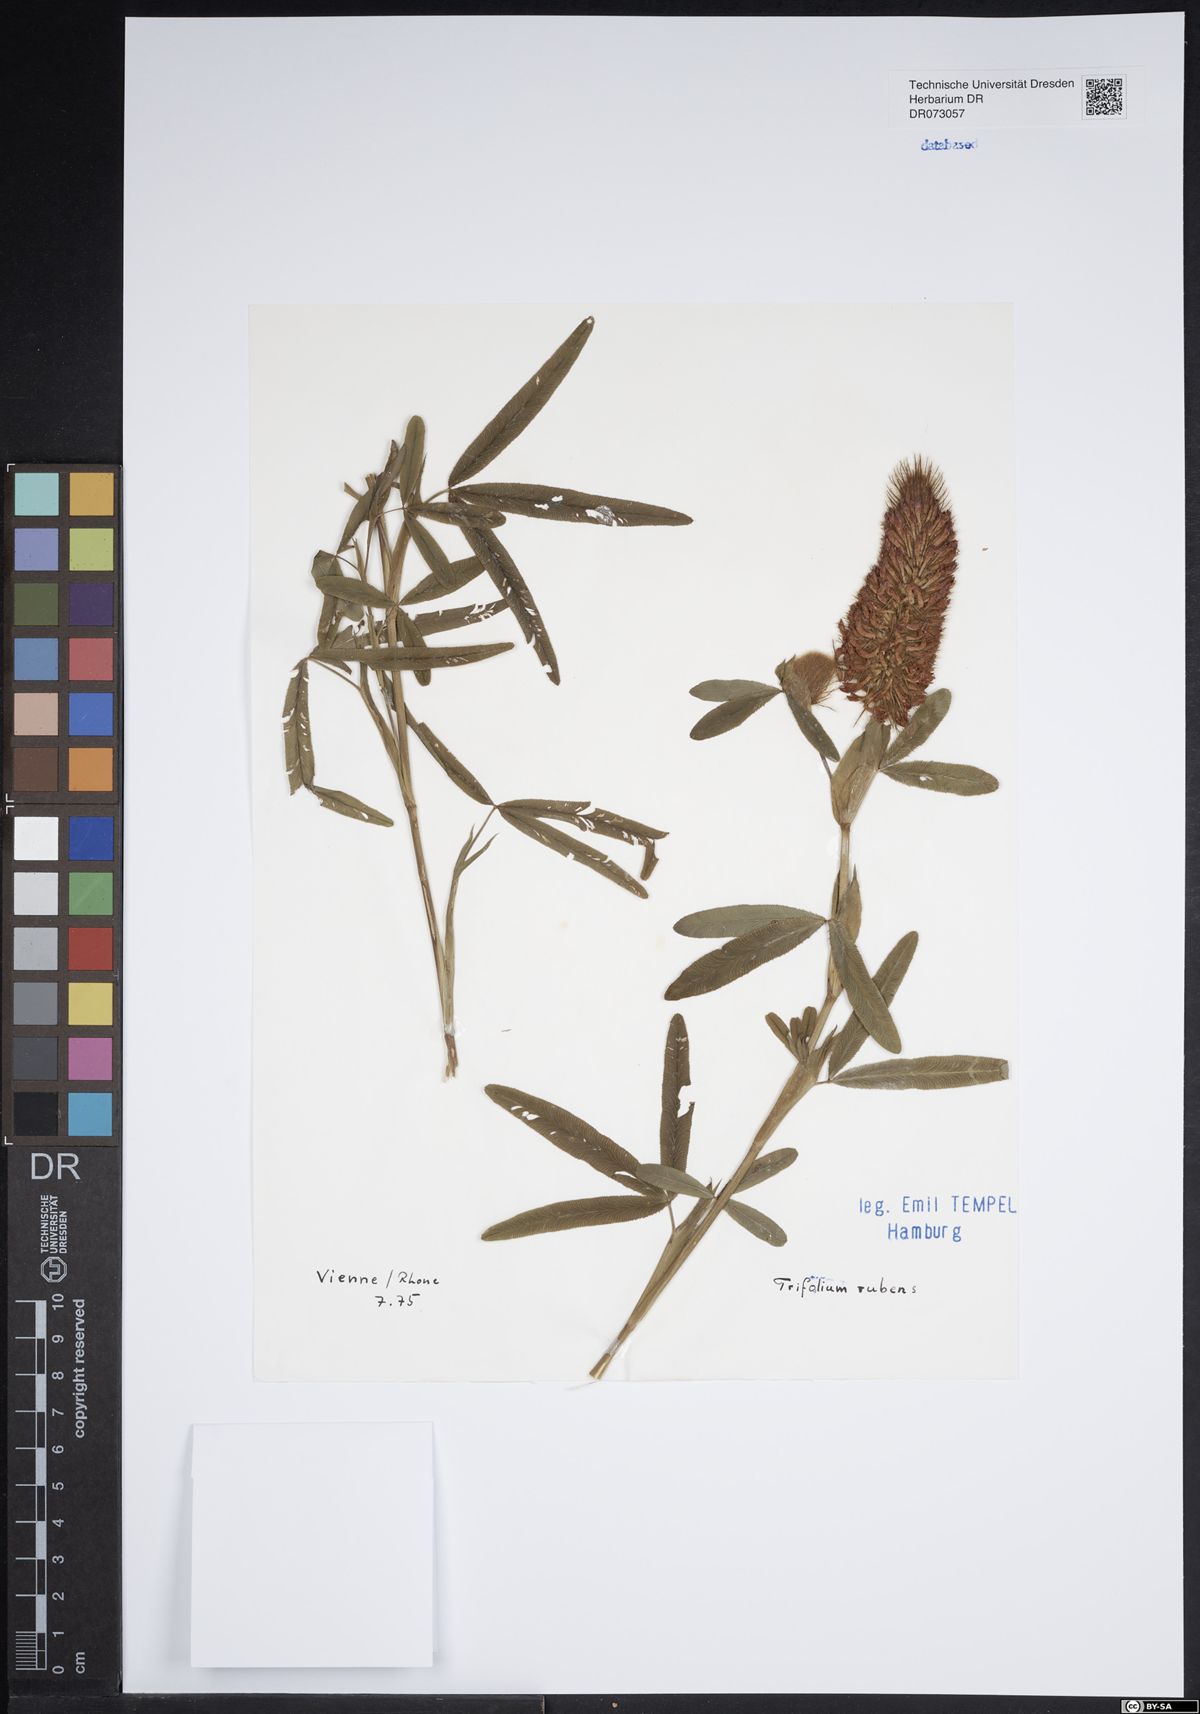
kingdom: Plantae
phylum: Tracheophyta
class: Magnoliopsida
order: Fabales
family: Fabaceae
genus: Trifolium
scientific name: Trifolium rubens
